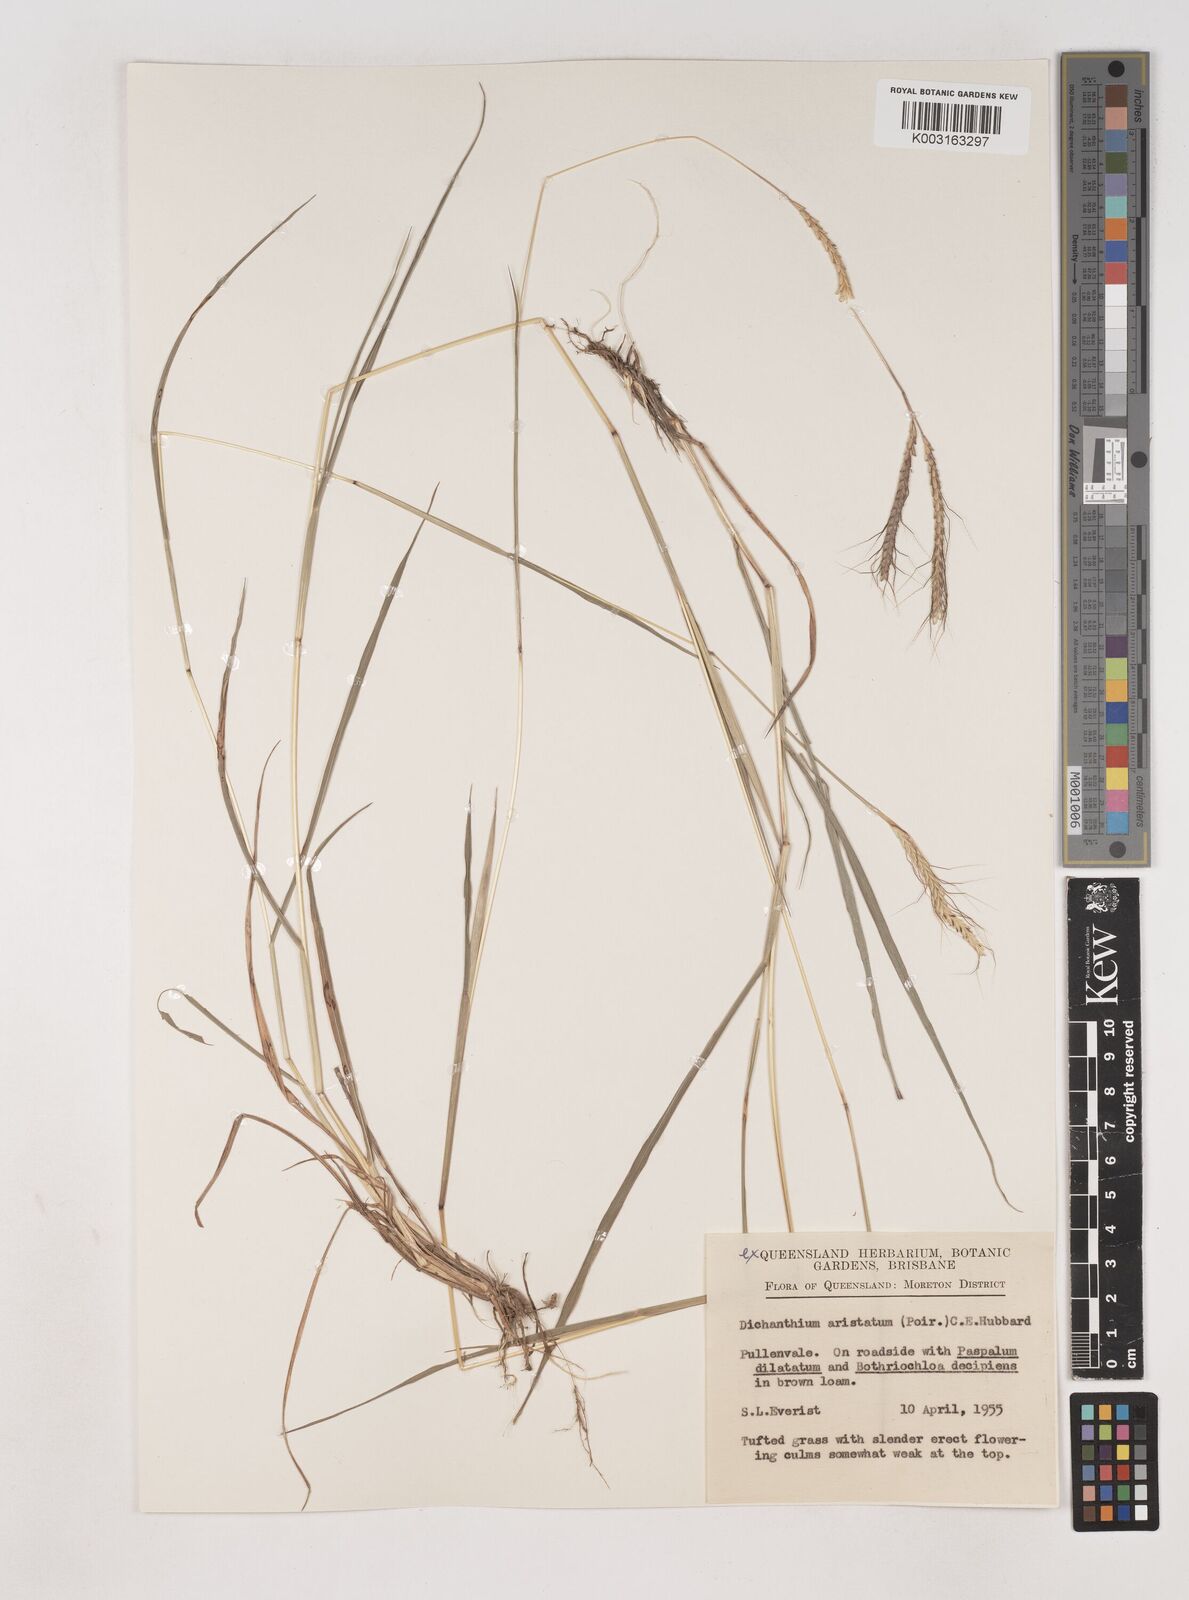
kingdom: Plantae
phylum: Tracheophyta
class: Liliopsida
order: Poales
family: Poaceae
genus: Dichanthium
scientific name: Dichanthium aristatum
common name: Angleton bluestem
